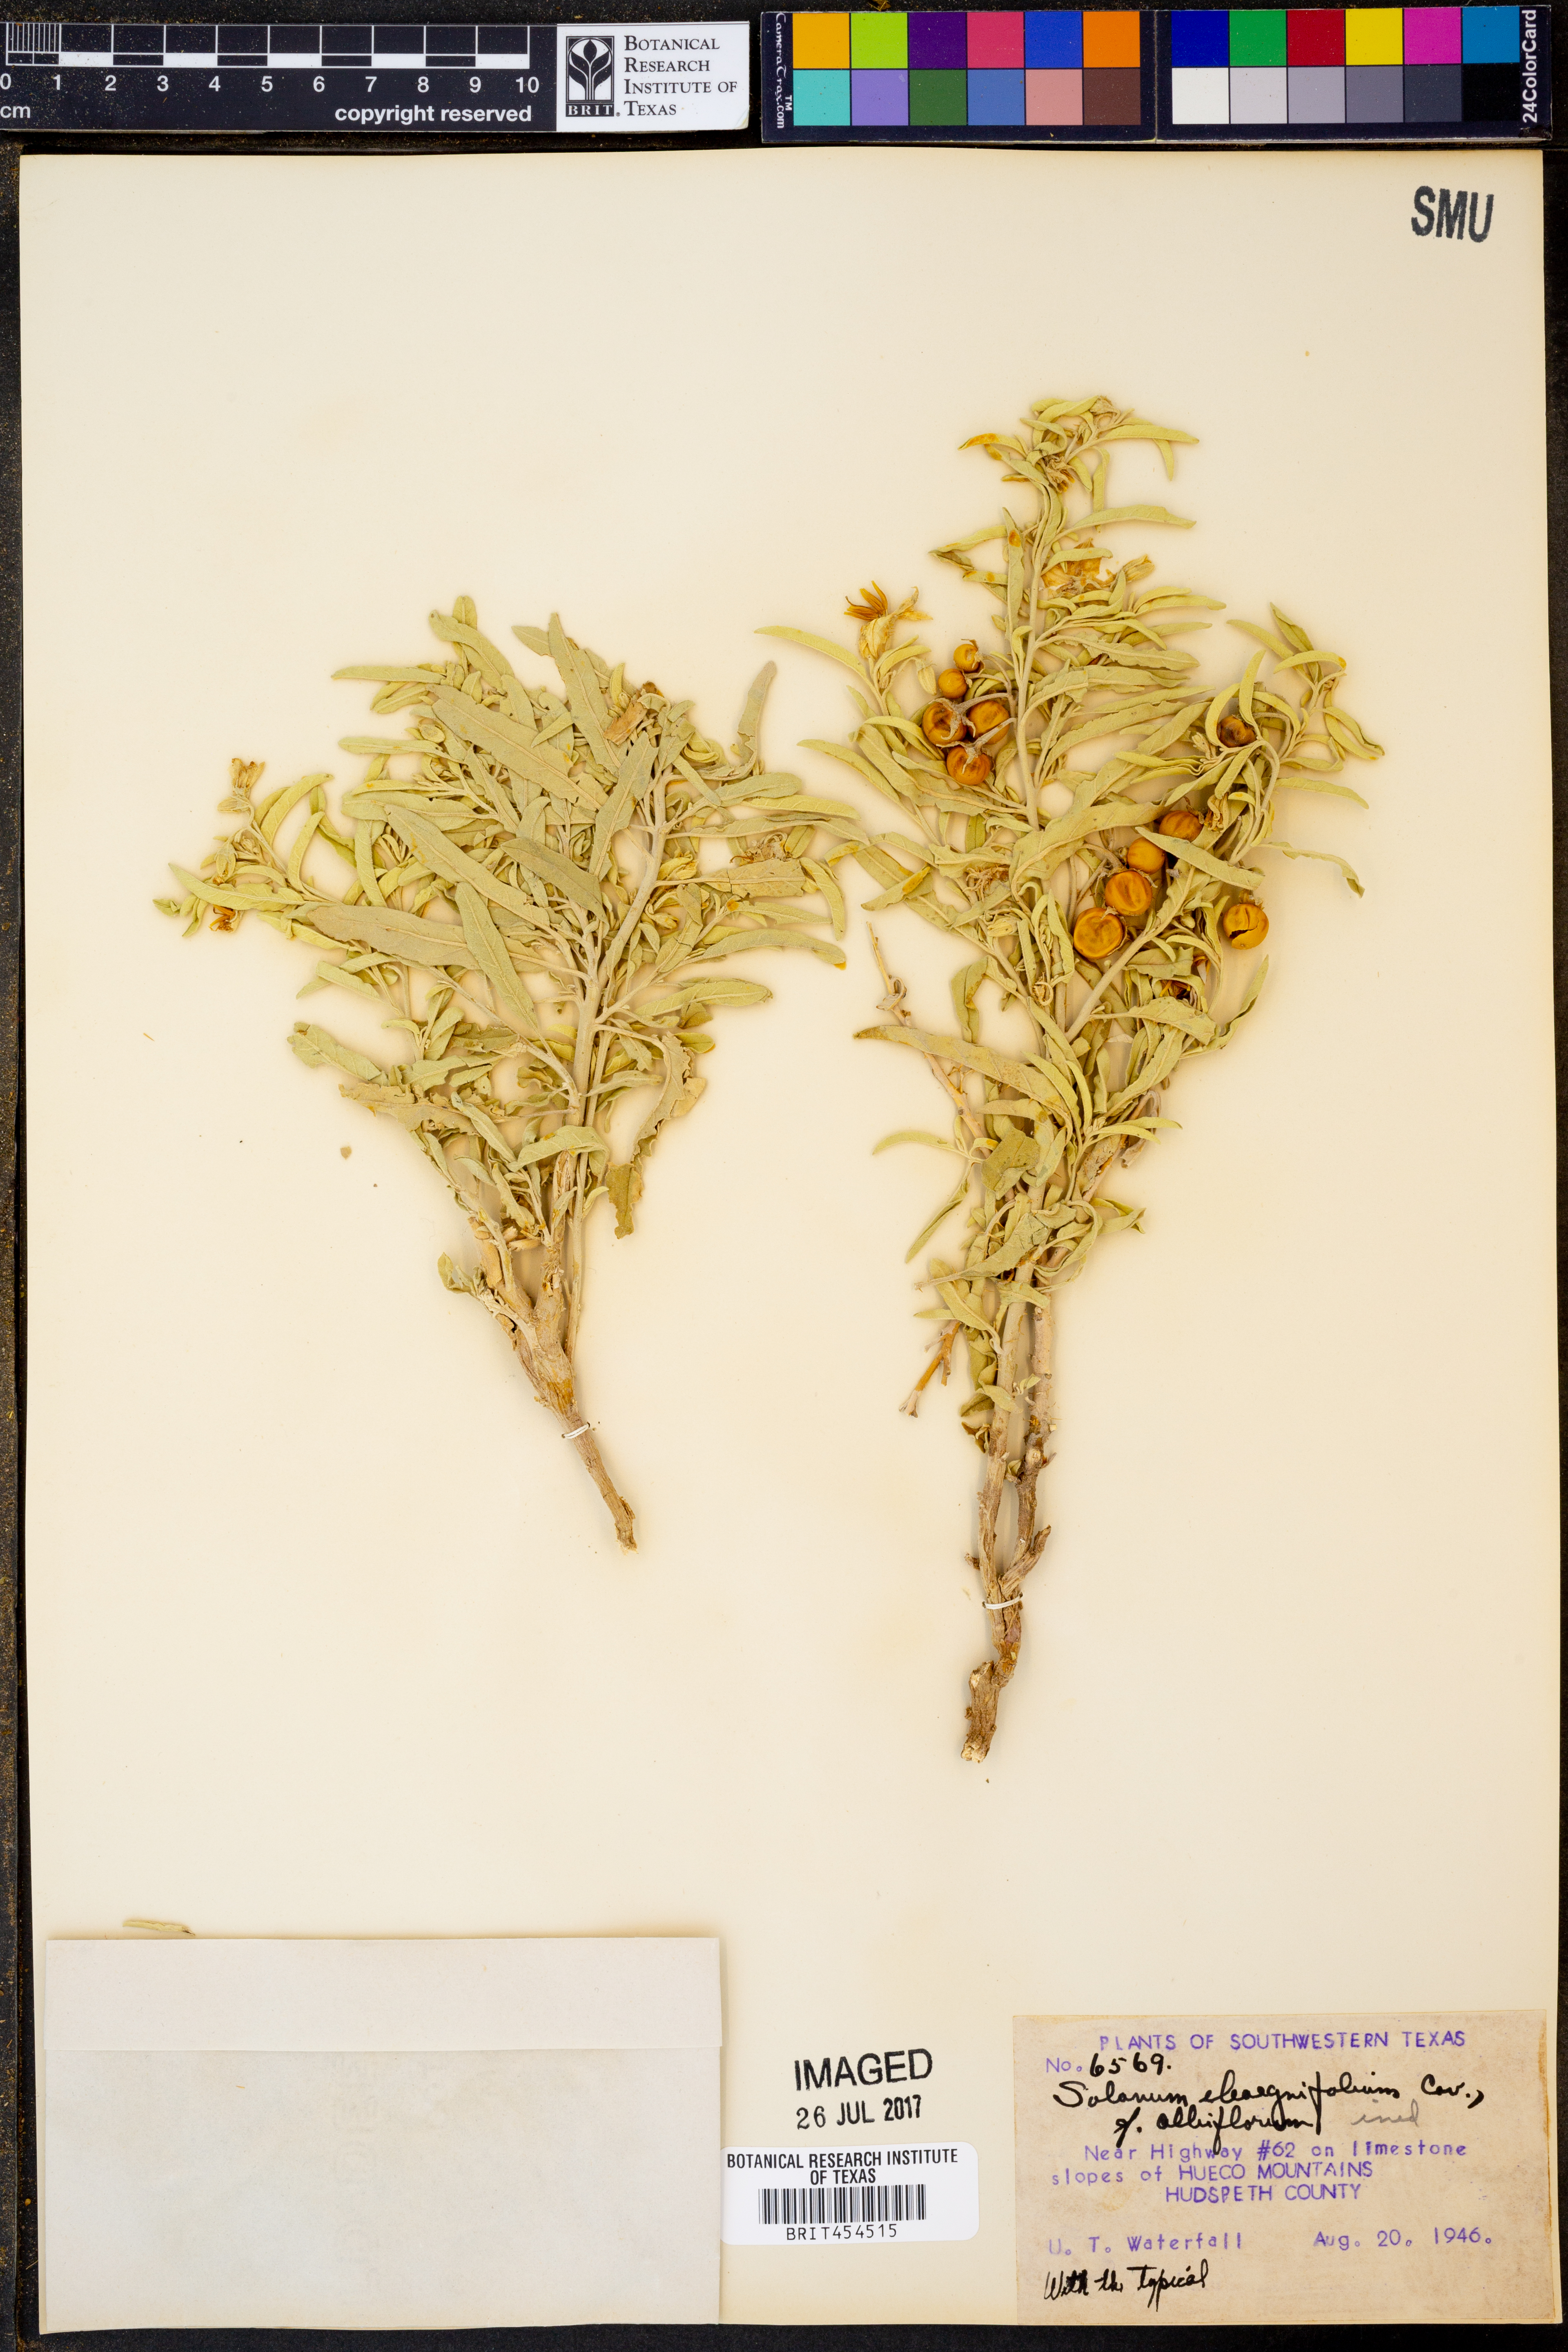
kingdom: Plantae
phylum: Tracheophyta
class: Magnoliopsida
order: Solanales
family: Solanaceae
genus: Solanum
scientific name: Solanum elaeagnifolium
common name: Silverleaf nightshade
